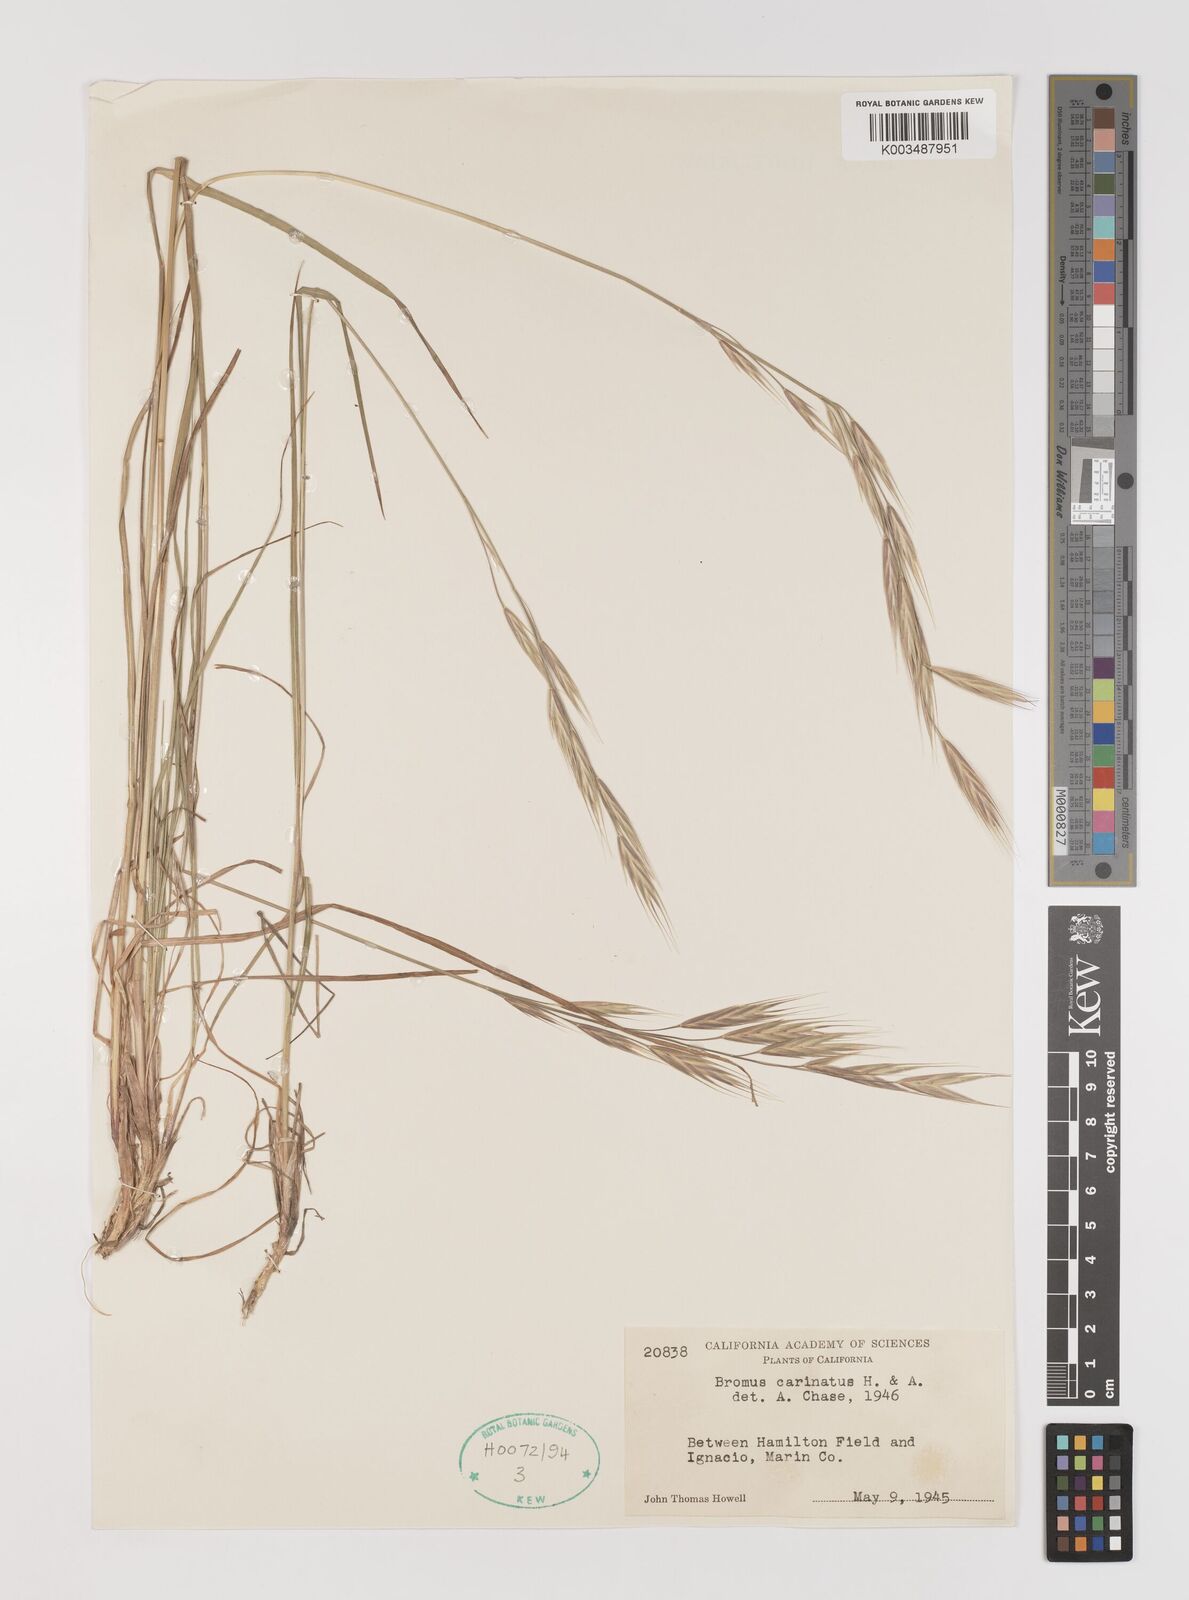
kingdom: Plantae
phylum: Tracheophyta
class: Liliopsida
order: Poales
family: Poaceae
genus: Bromus
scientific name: Bromus carinatus
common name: Mountain brome
